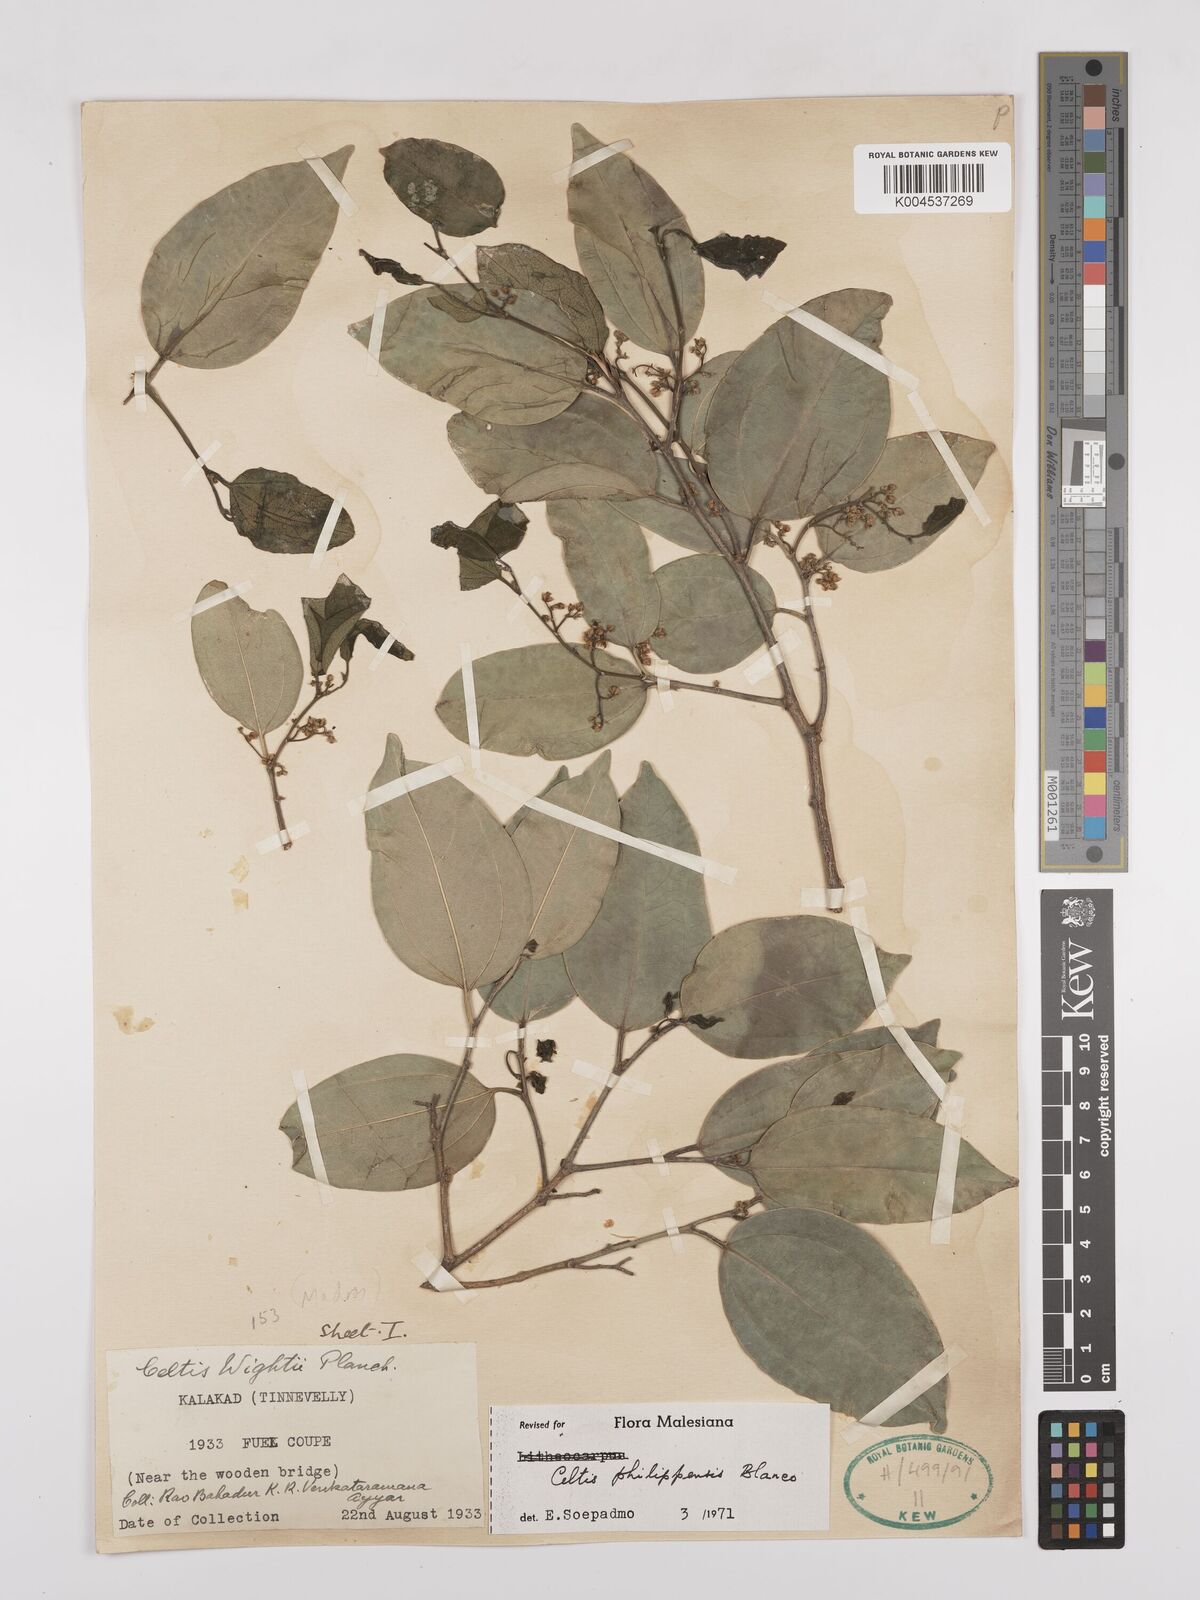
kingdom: Plantae
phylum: Tracheophyta
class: Magnoliopsida
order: Rosales
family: Cannabaceae
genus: Celtis
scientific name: Celtis philippensis
